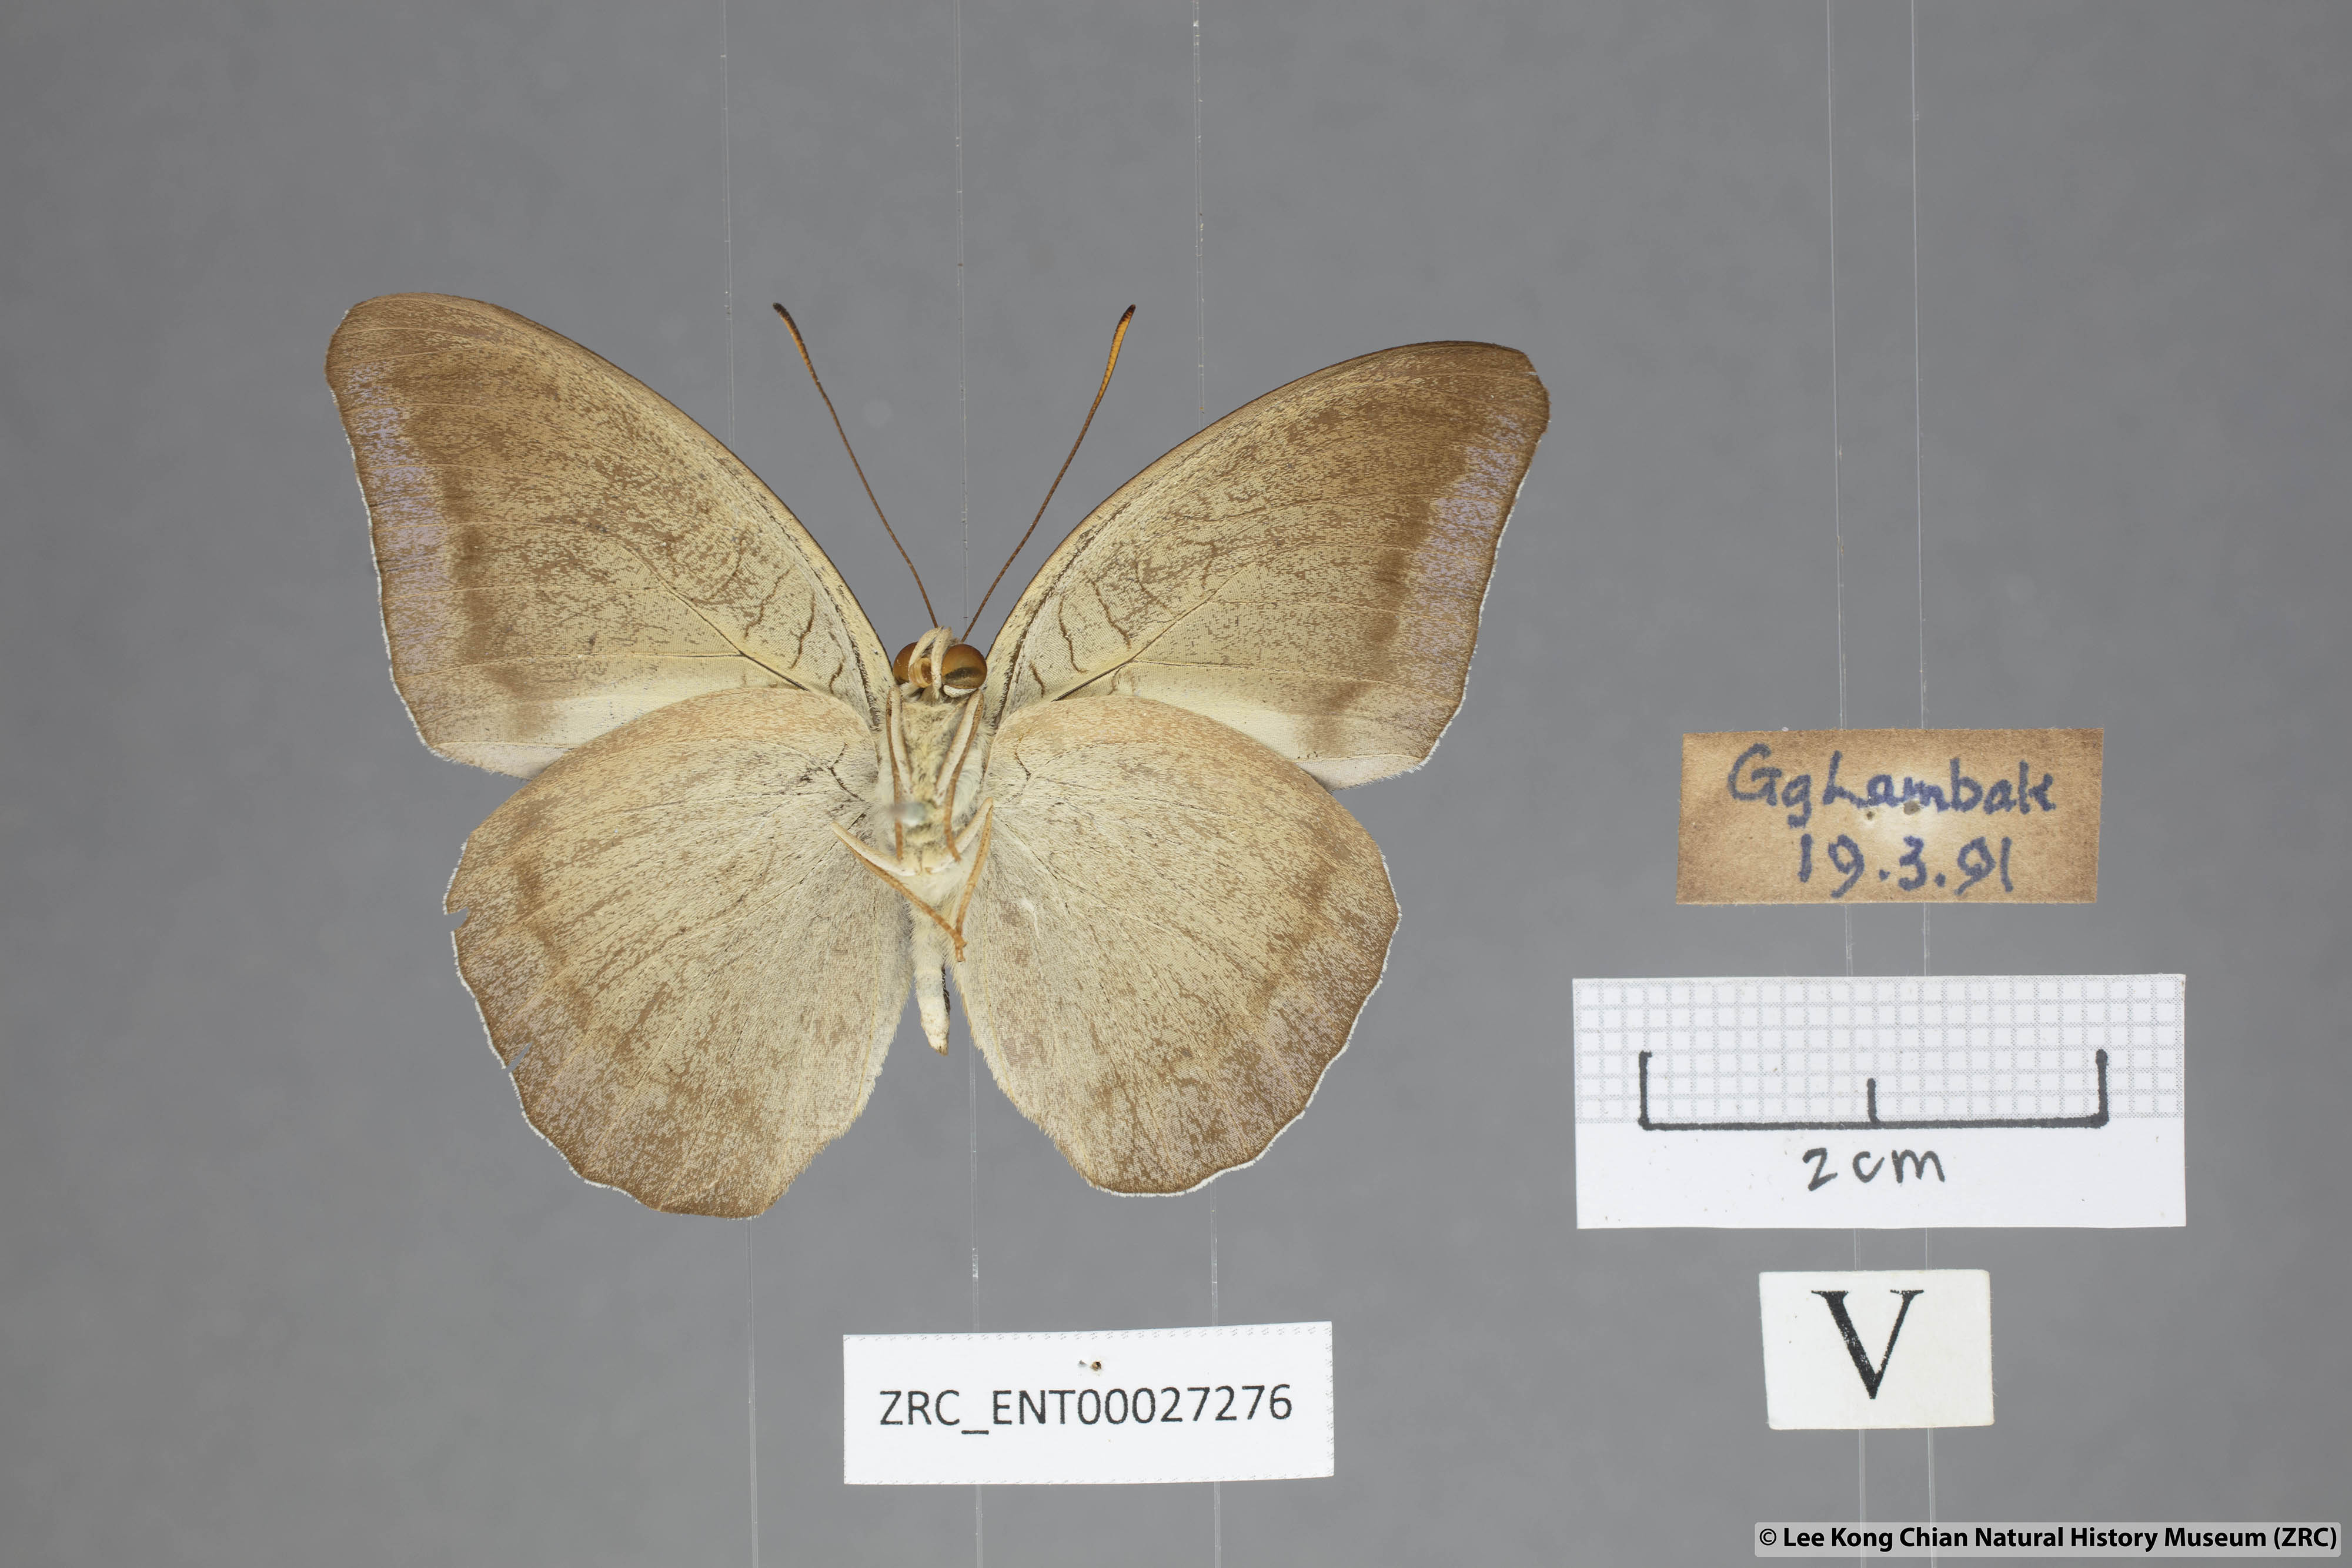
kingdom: Animalia
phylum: Arthropoda
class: Insecta
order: Lepidoptera
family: Nymphalidae
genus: Tanaecia
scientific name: Tanaecia godartii
